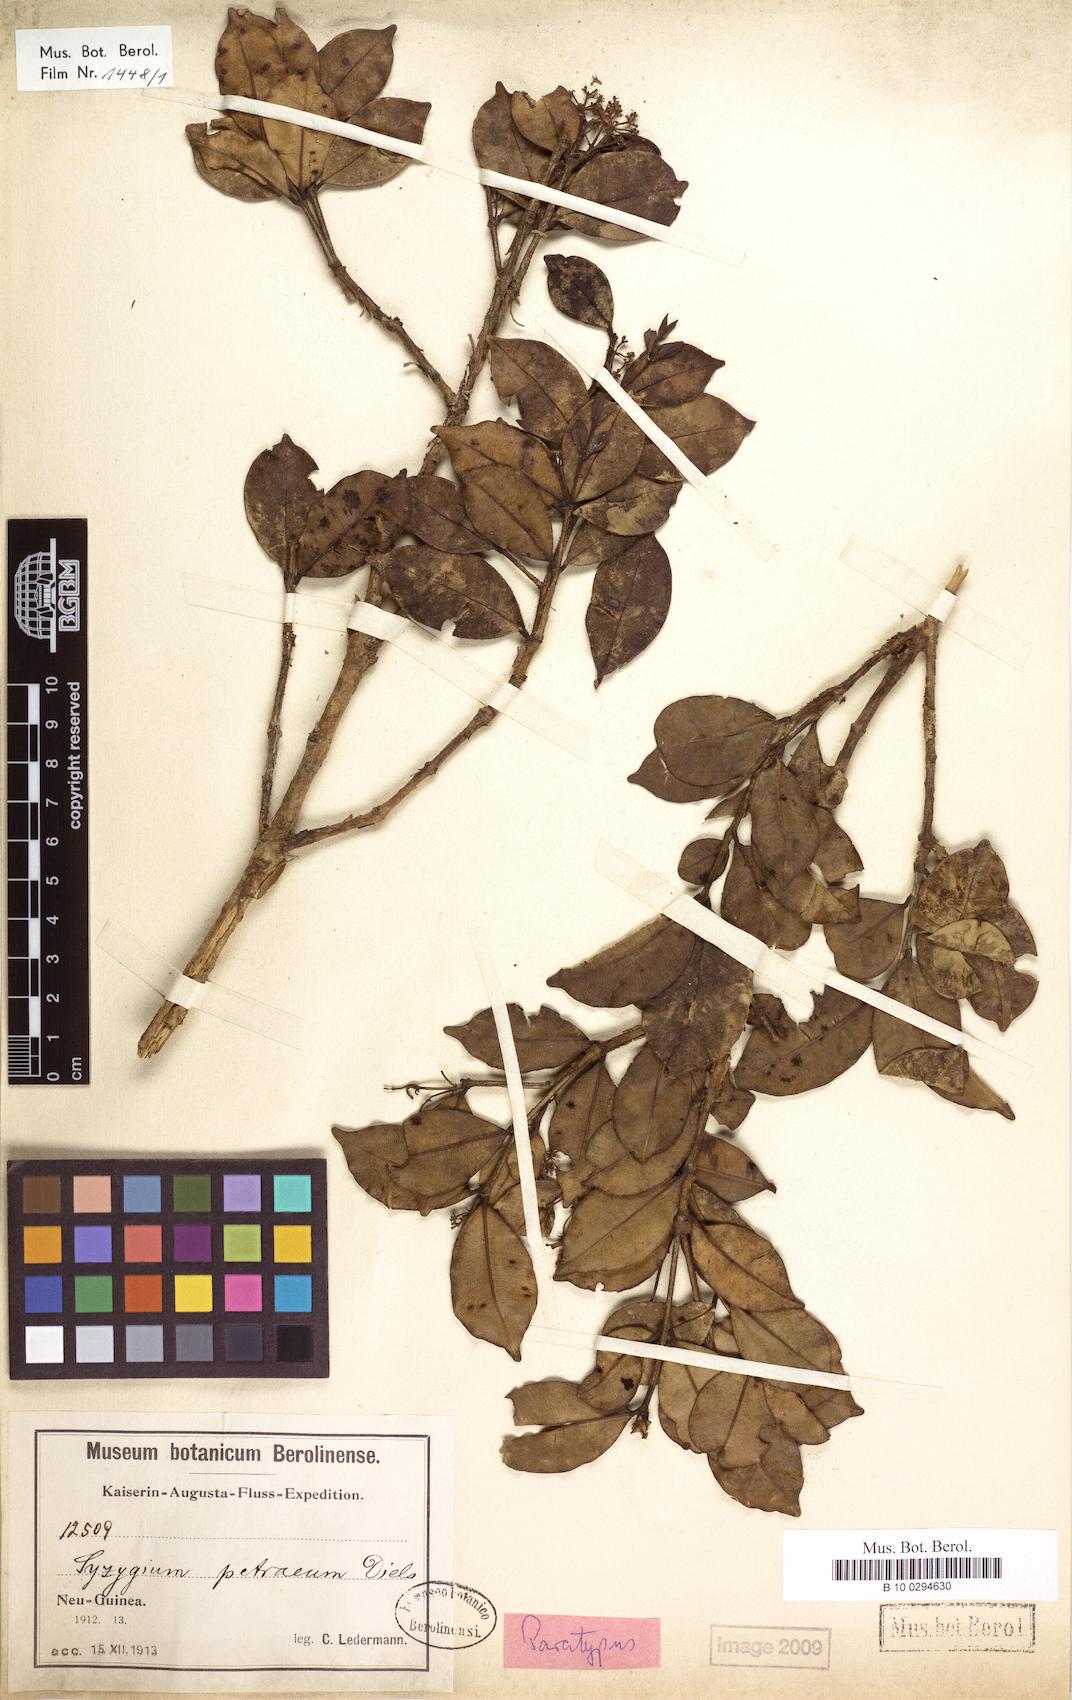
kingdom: Plantae
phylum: Tracheophyta
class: Magnoliopsida
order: Myrtales
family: Myrtaceae
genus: Syzygium
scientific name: Syzygium petraeum
